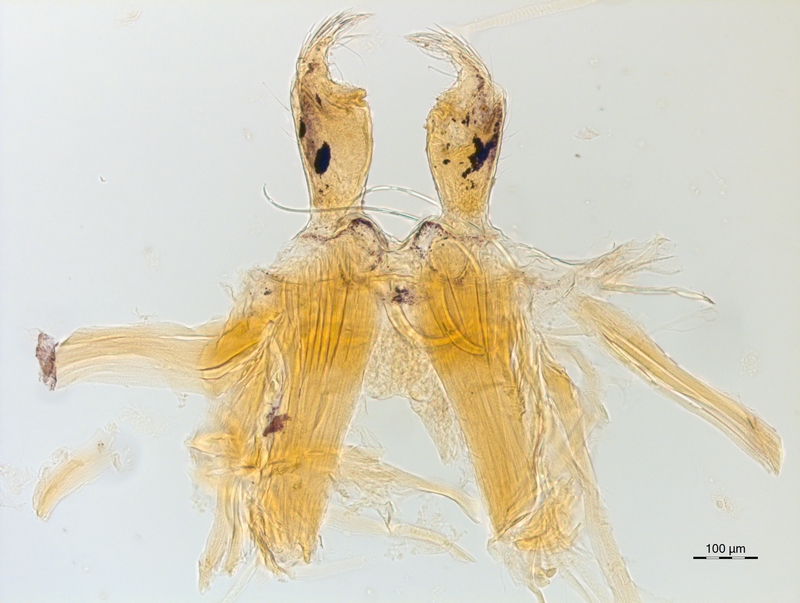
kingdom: Animalia
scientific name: Animalia
